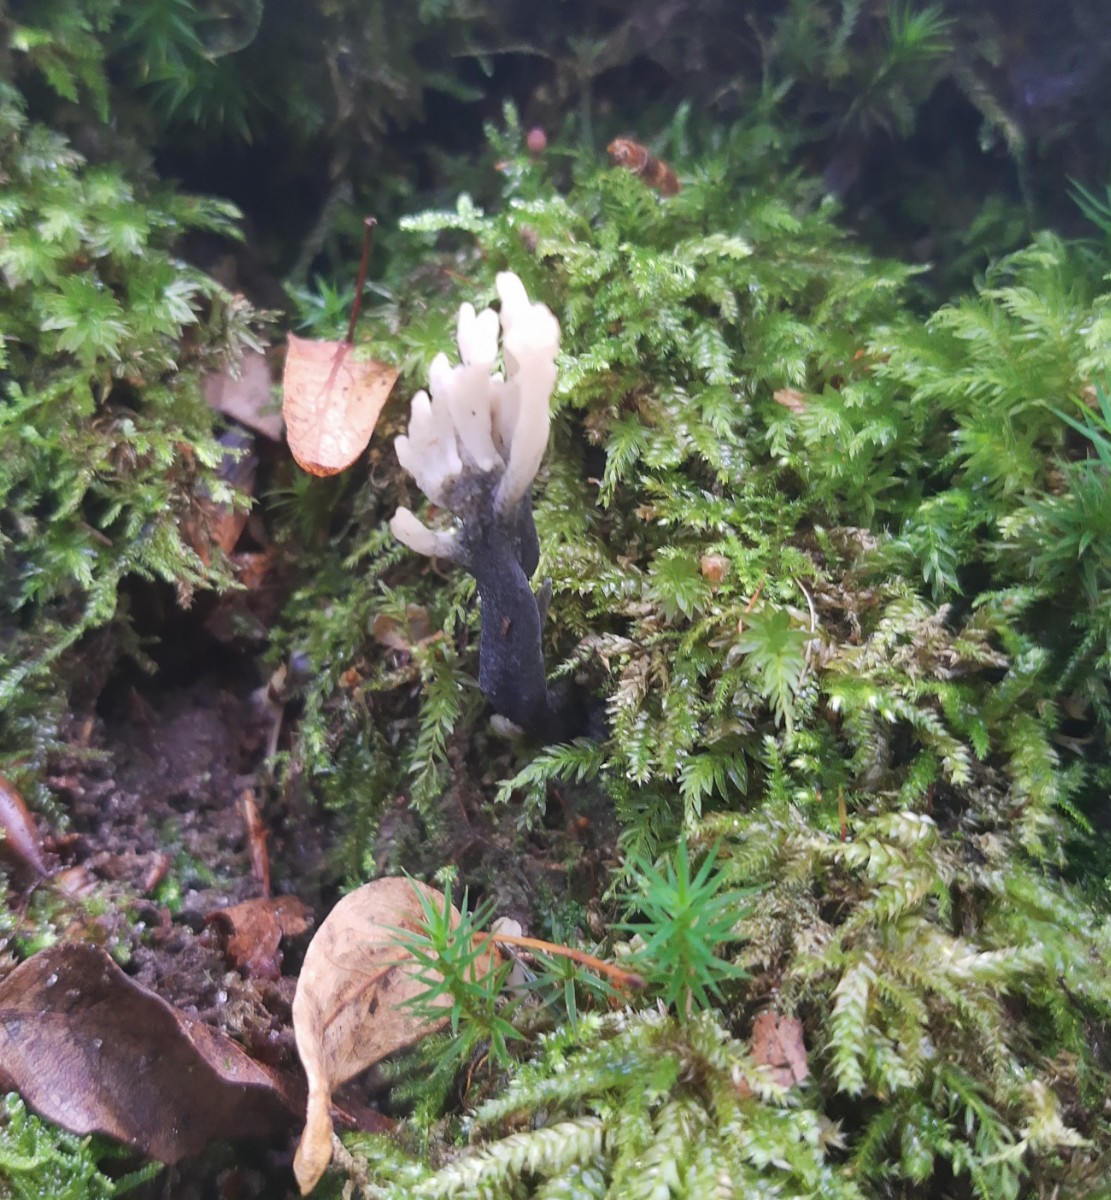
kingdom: Fungi
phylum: Ascomycota
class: Sordariomycetes
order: Sordariales
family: Helminthosphaeriaceae
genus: Helminthosphaeria
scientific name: Helminthosphaeria clavariarum
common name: trold-svampesnyltekerne
